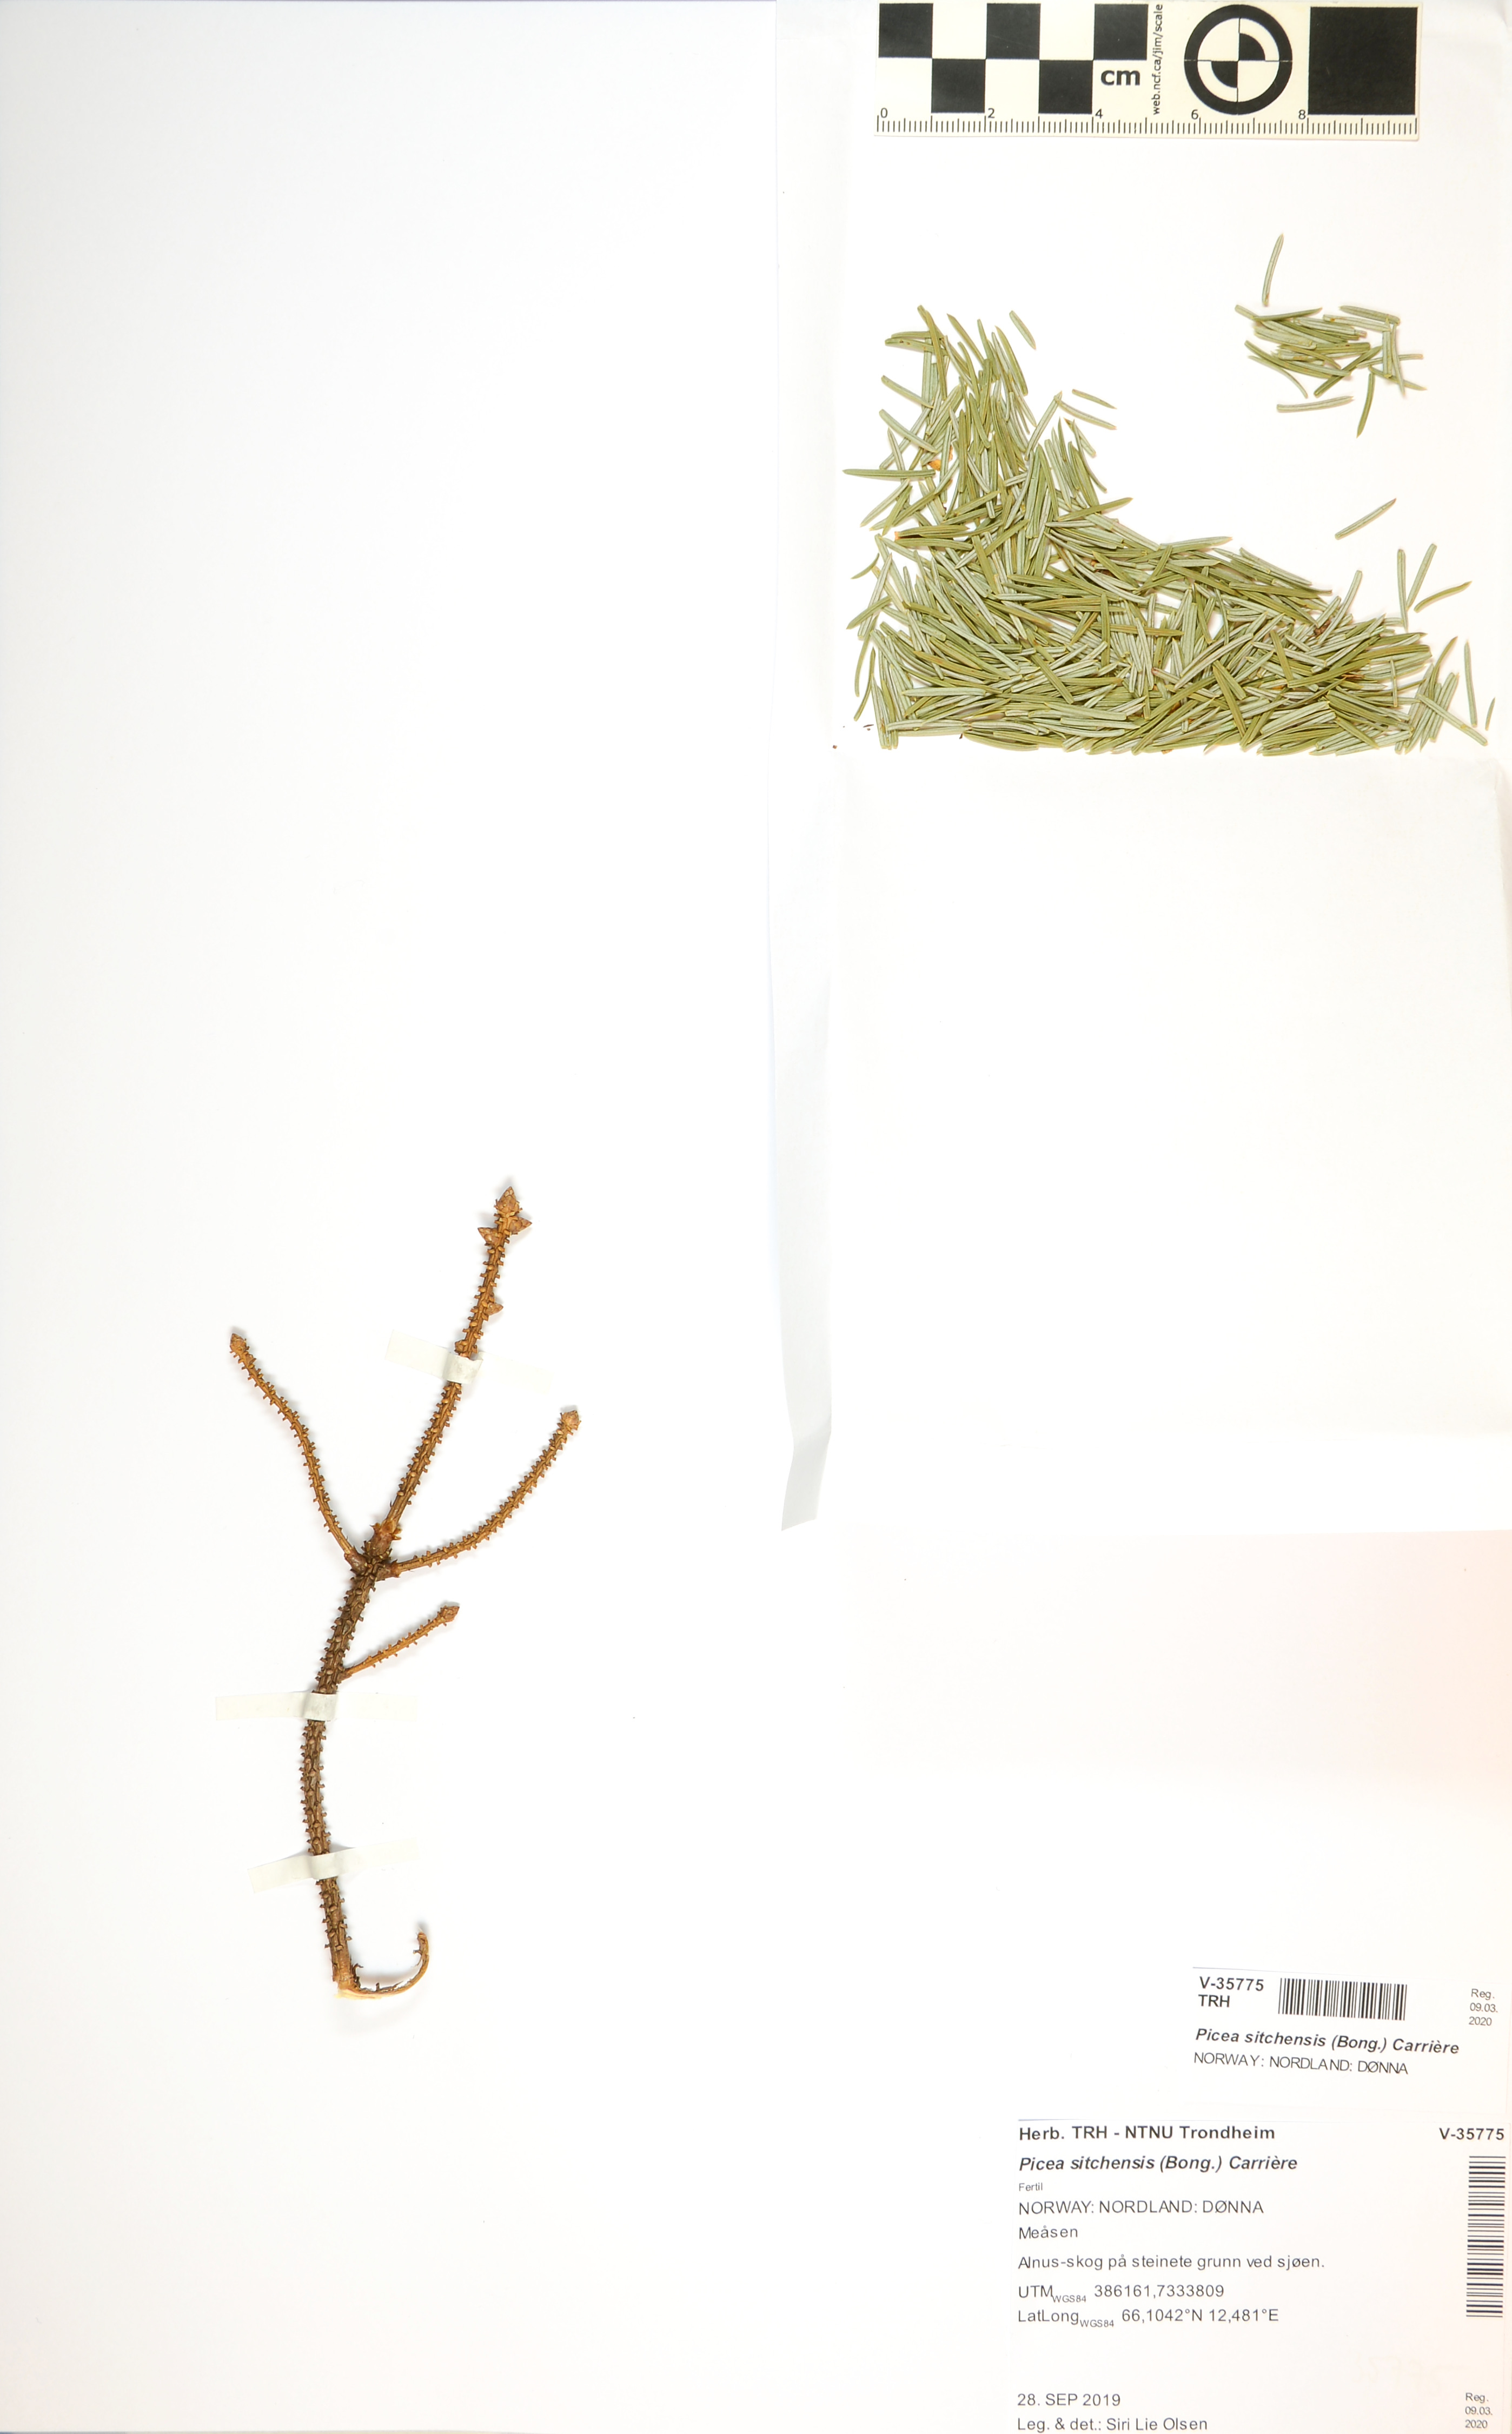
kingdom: Plantae
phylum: Tracheophyta
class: Pinopsida
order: Pinales
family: Pinaceae
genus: Picea
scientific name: Picea sitchensis
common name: Sitka spruce
